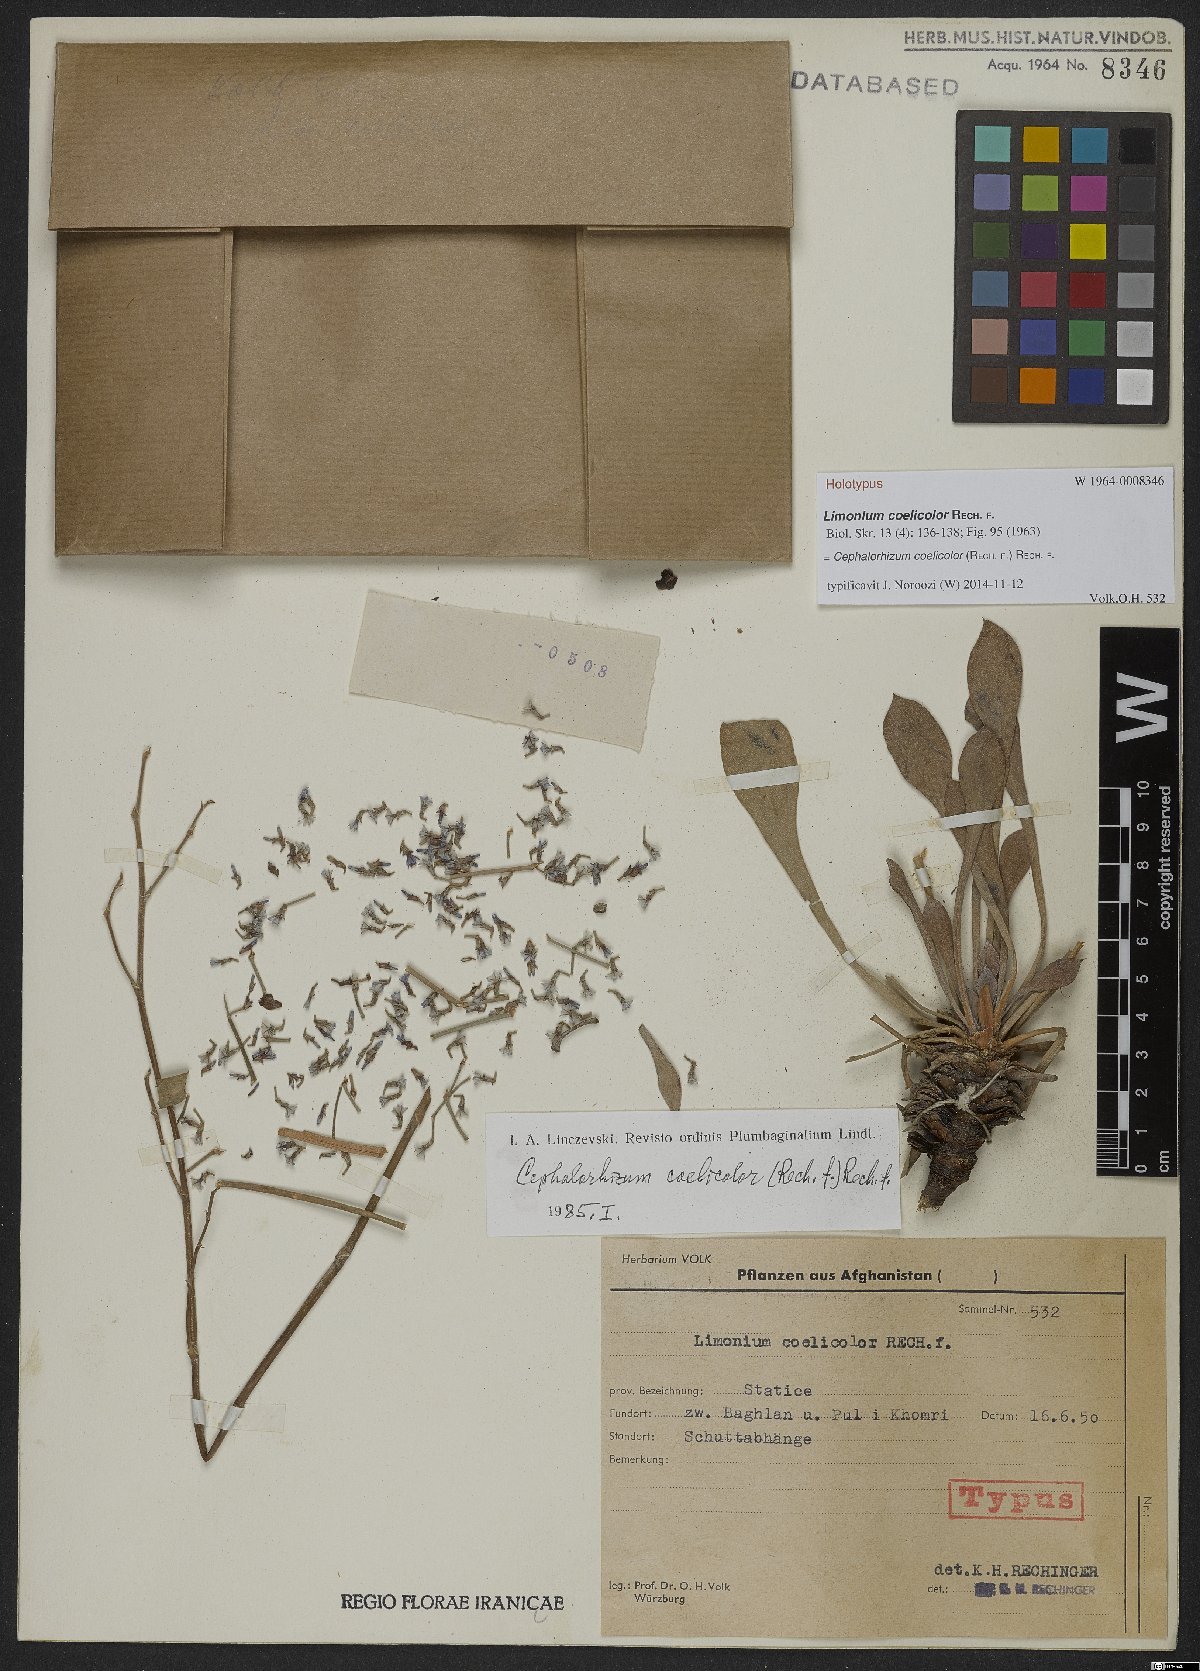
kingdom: Plantae
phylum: Tracheophyta
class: Magnoliopsida
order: Caryophyllales
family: Plumbaginaceae
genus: Cephalorhizum
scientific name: Cephalorhizum coelicolor
